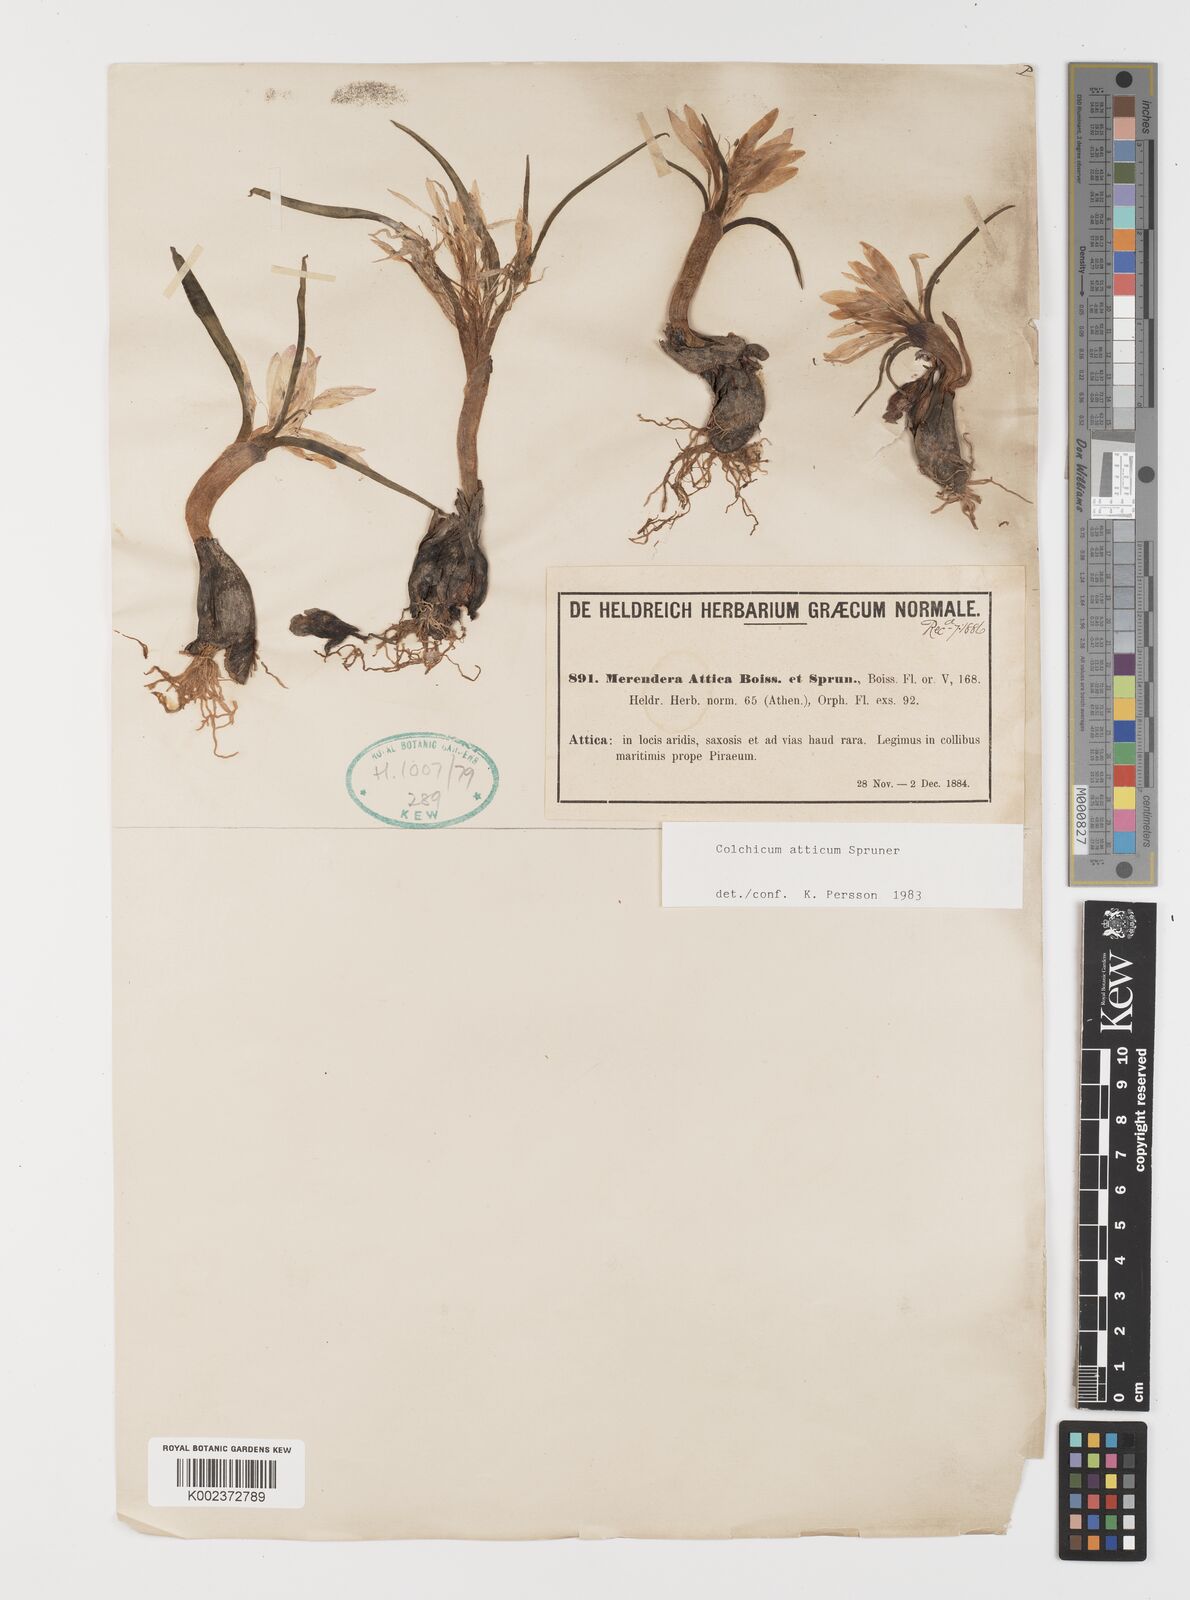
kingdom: Plantae
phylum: Tracheophyta
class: Liliopsida
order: Liliales
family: Colchicaceae
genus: Colchicum
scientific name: Colchicum atticum
